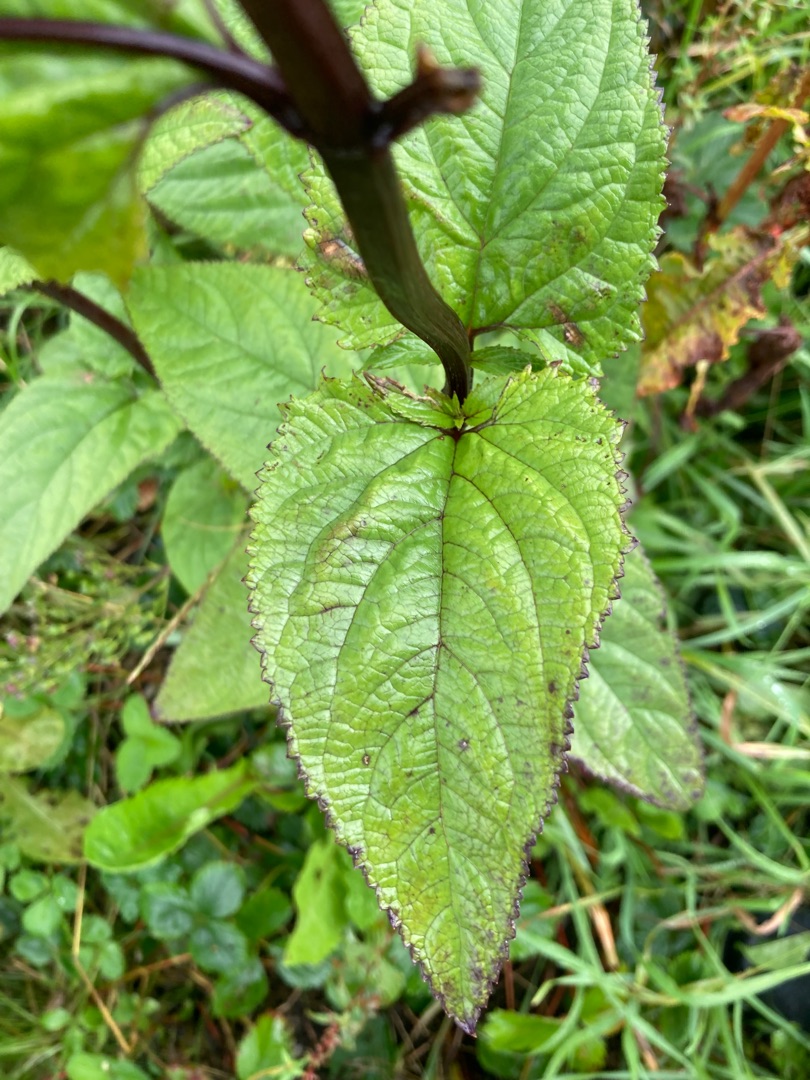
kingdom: Plantae
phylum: Tracheophyta
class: Magnoliopsida
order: Lamiales
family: Scrophulariaceae
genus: Scrophularia
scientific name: Scrophularia nodosa
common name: Knoldet brunrod
